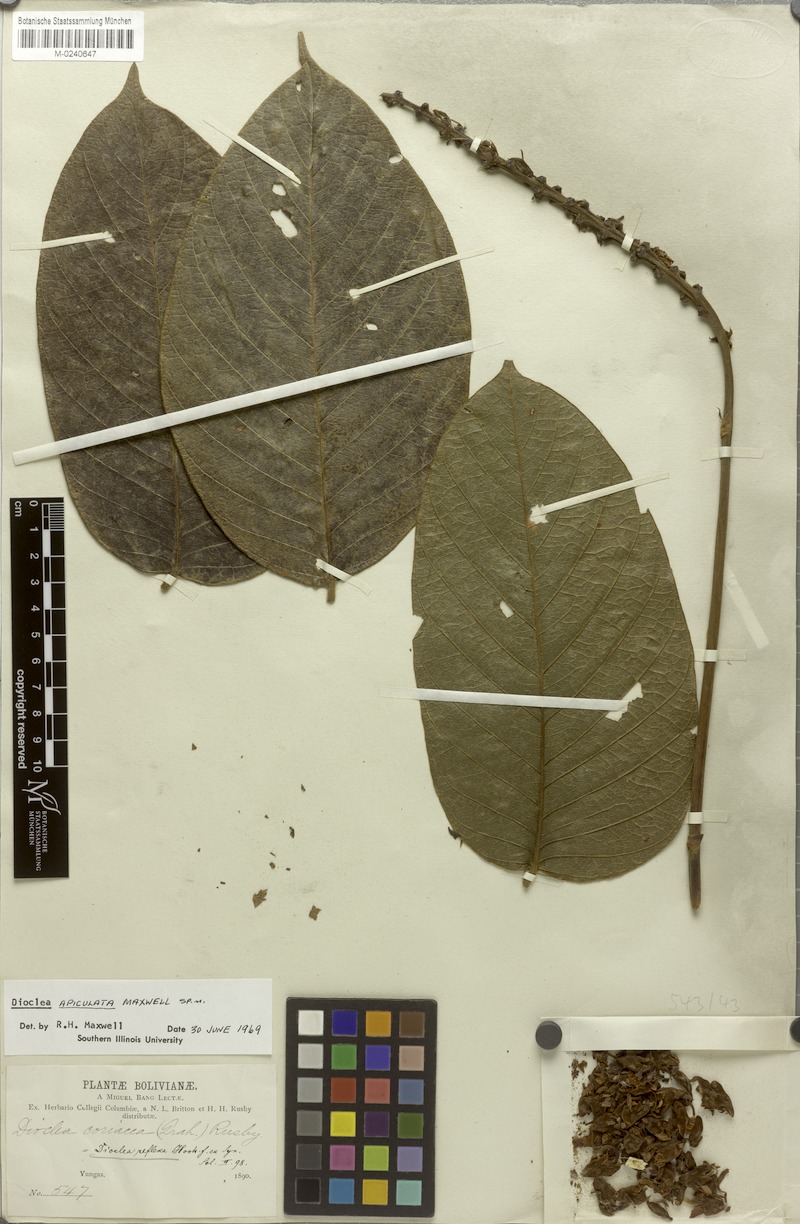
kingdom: Plantae
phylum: Tracheophyta
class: Magnoliopsida
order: Fabales
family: Fabaceae
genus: Macropsychanthus
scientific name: Macropsychanthus apiculatus
